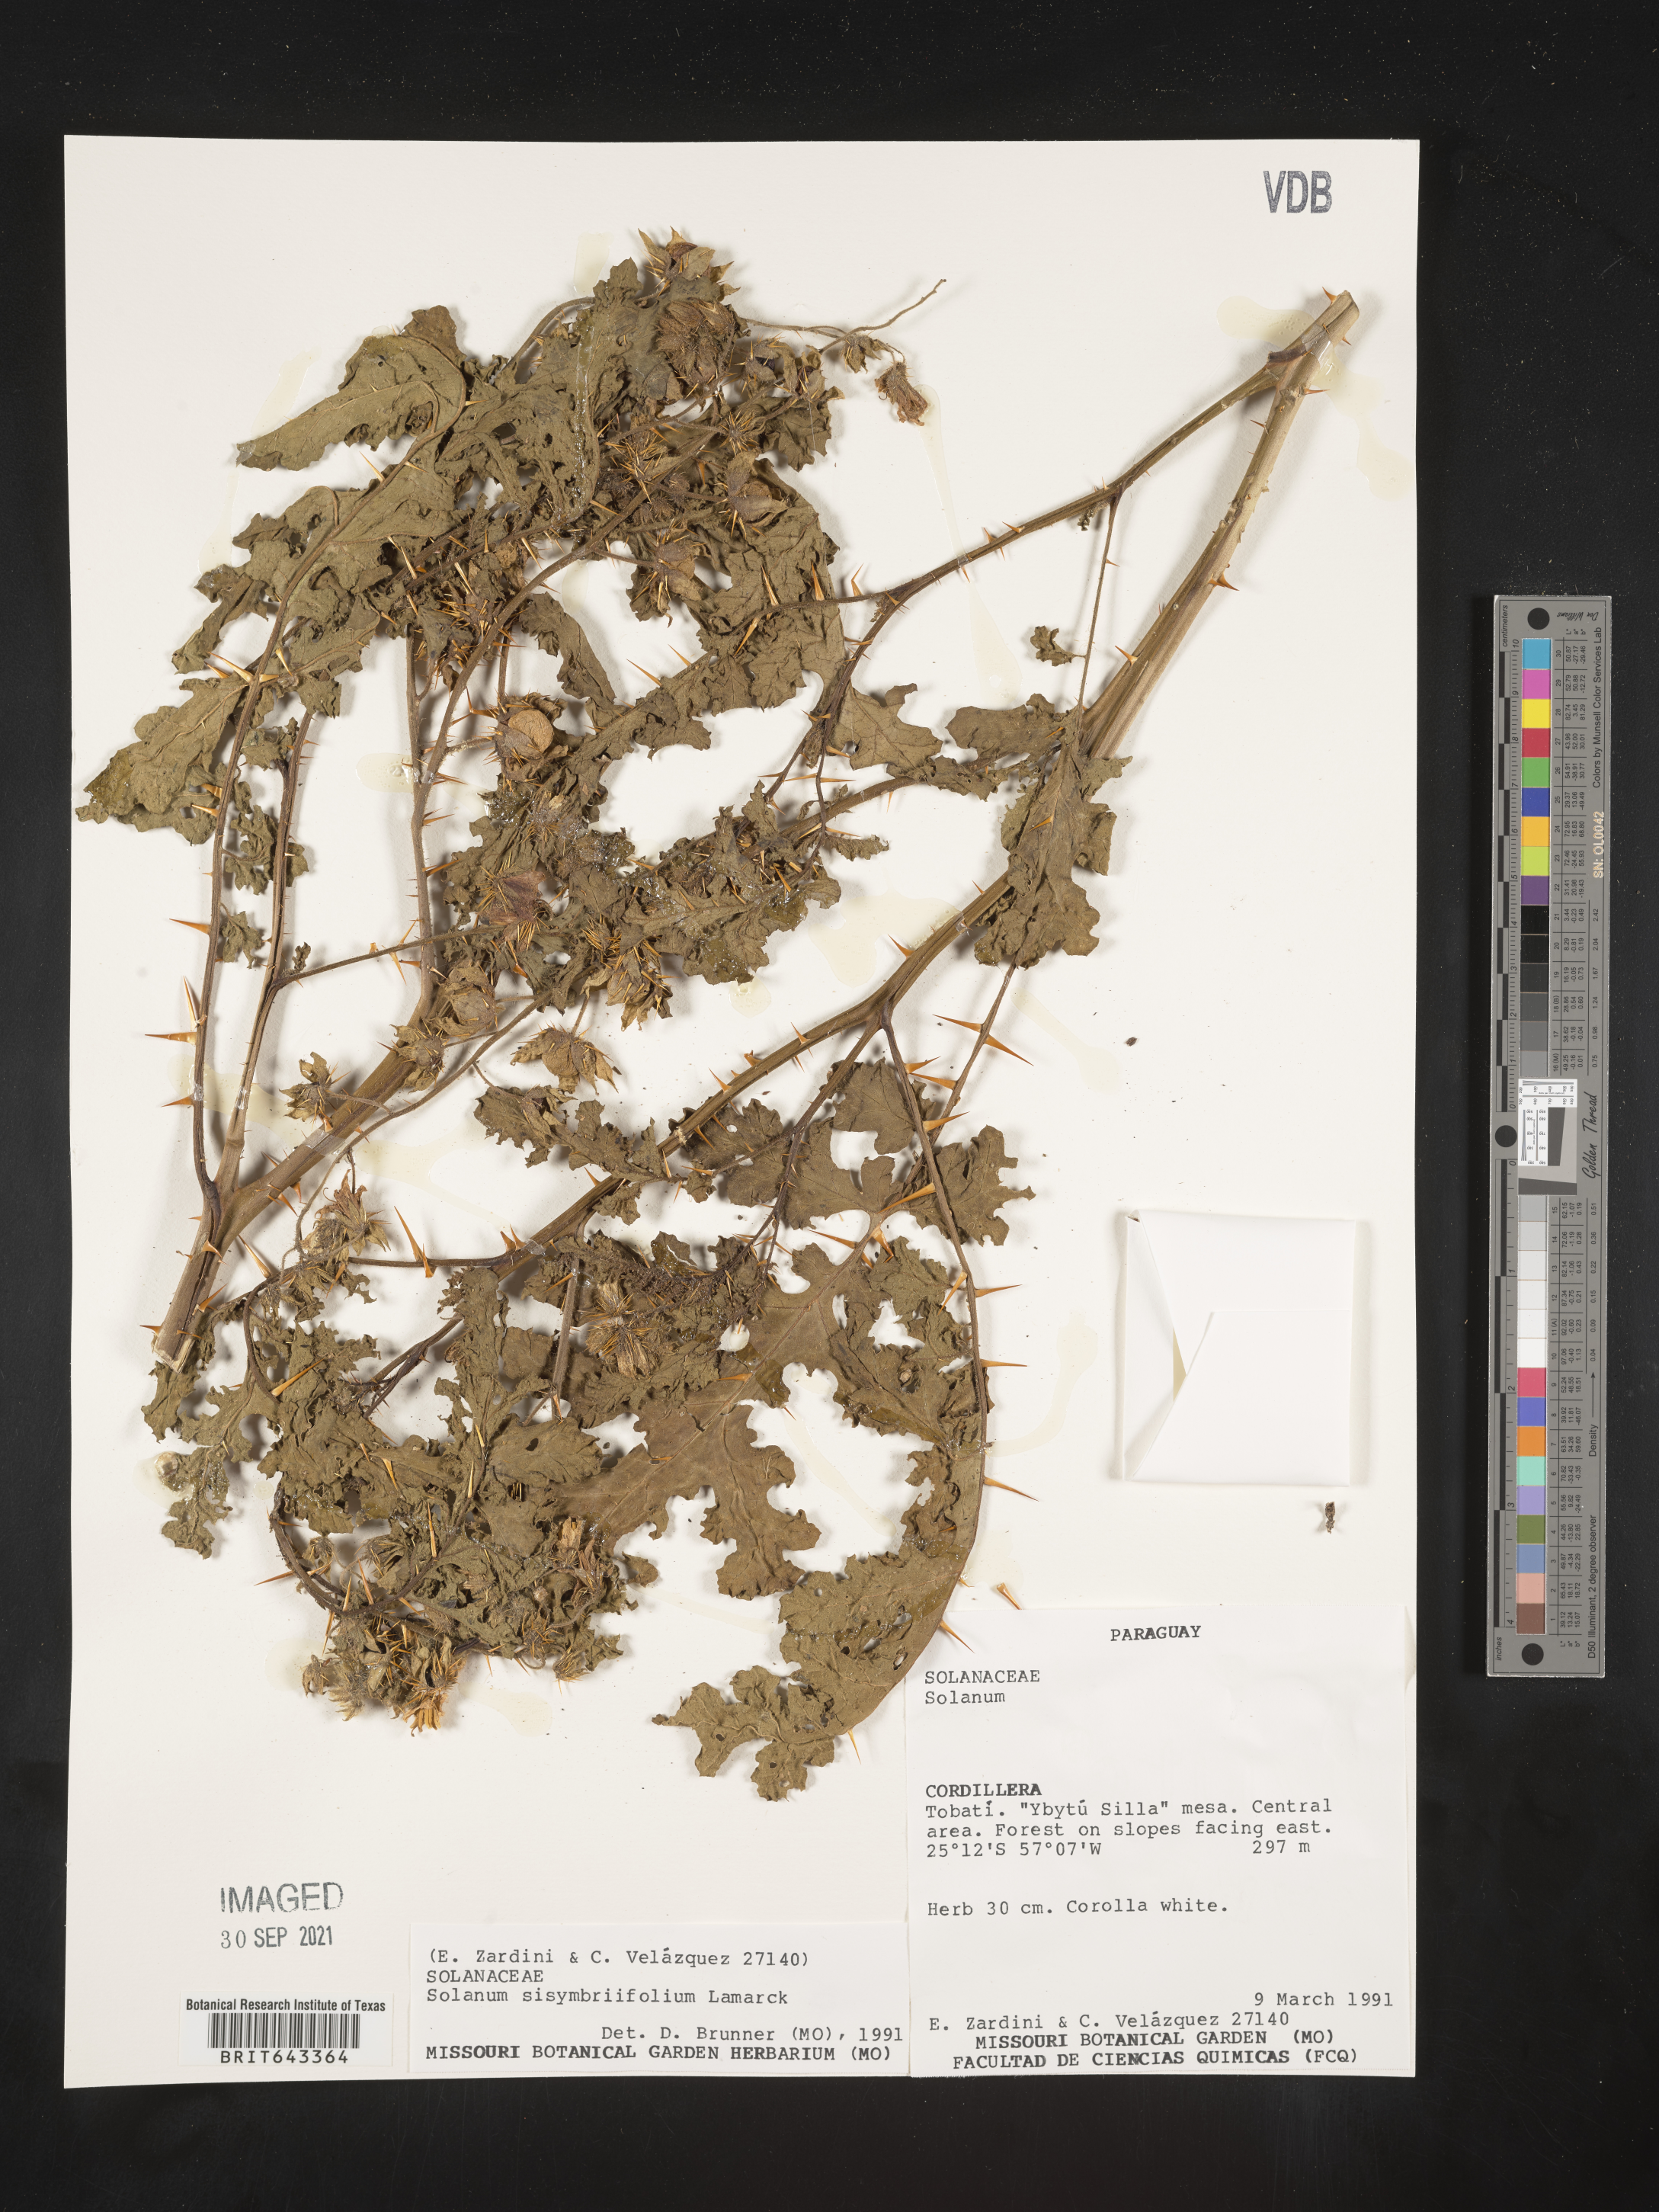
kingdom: Plantae
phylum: Tracheophyta
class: Magnoliopsida
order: Solanales
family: Solanaceae
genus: Solanum
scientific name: Solanum
